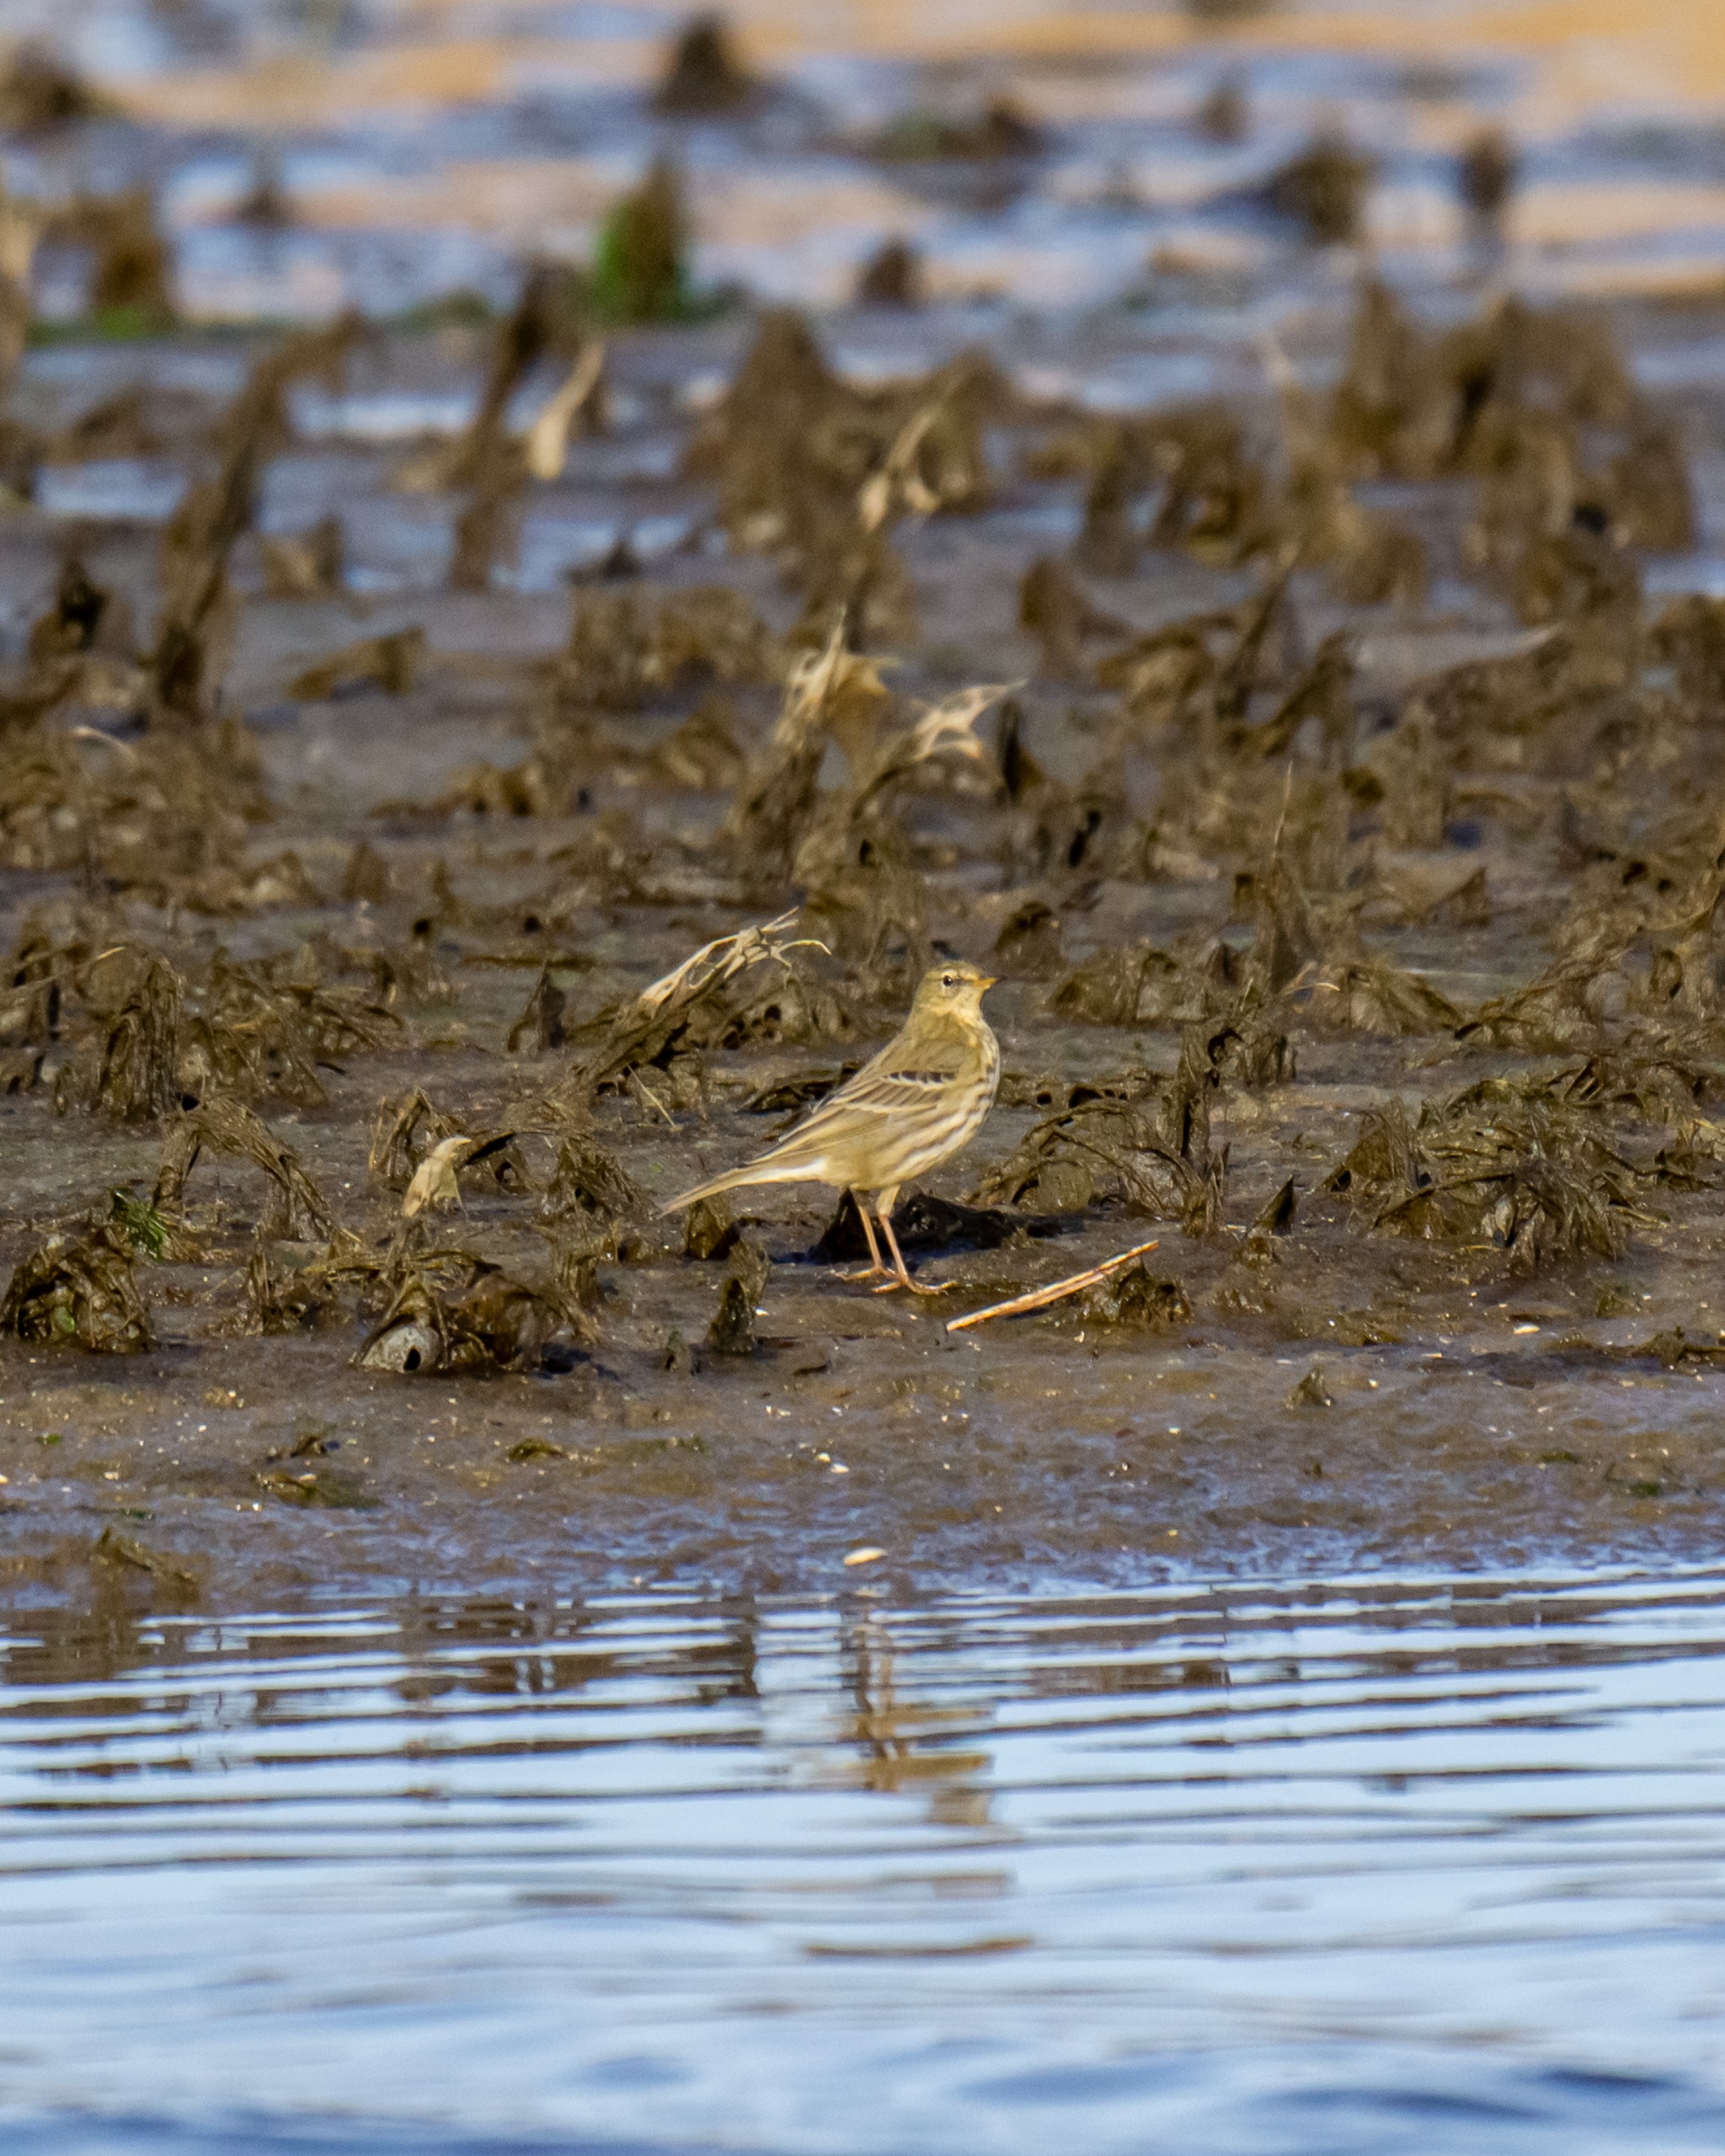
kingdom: Animalia
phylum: Chordata
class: Aves
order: Passeriformes
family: Motacillidae
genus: Anthus
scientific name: Anthus petrosus
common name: Skærpiber
